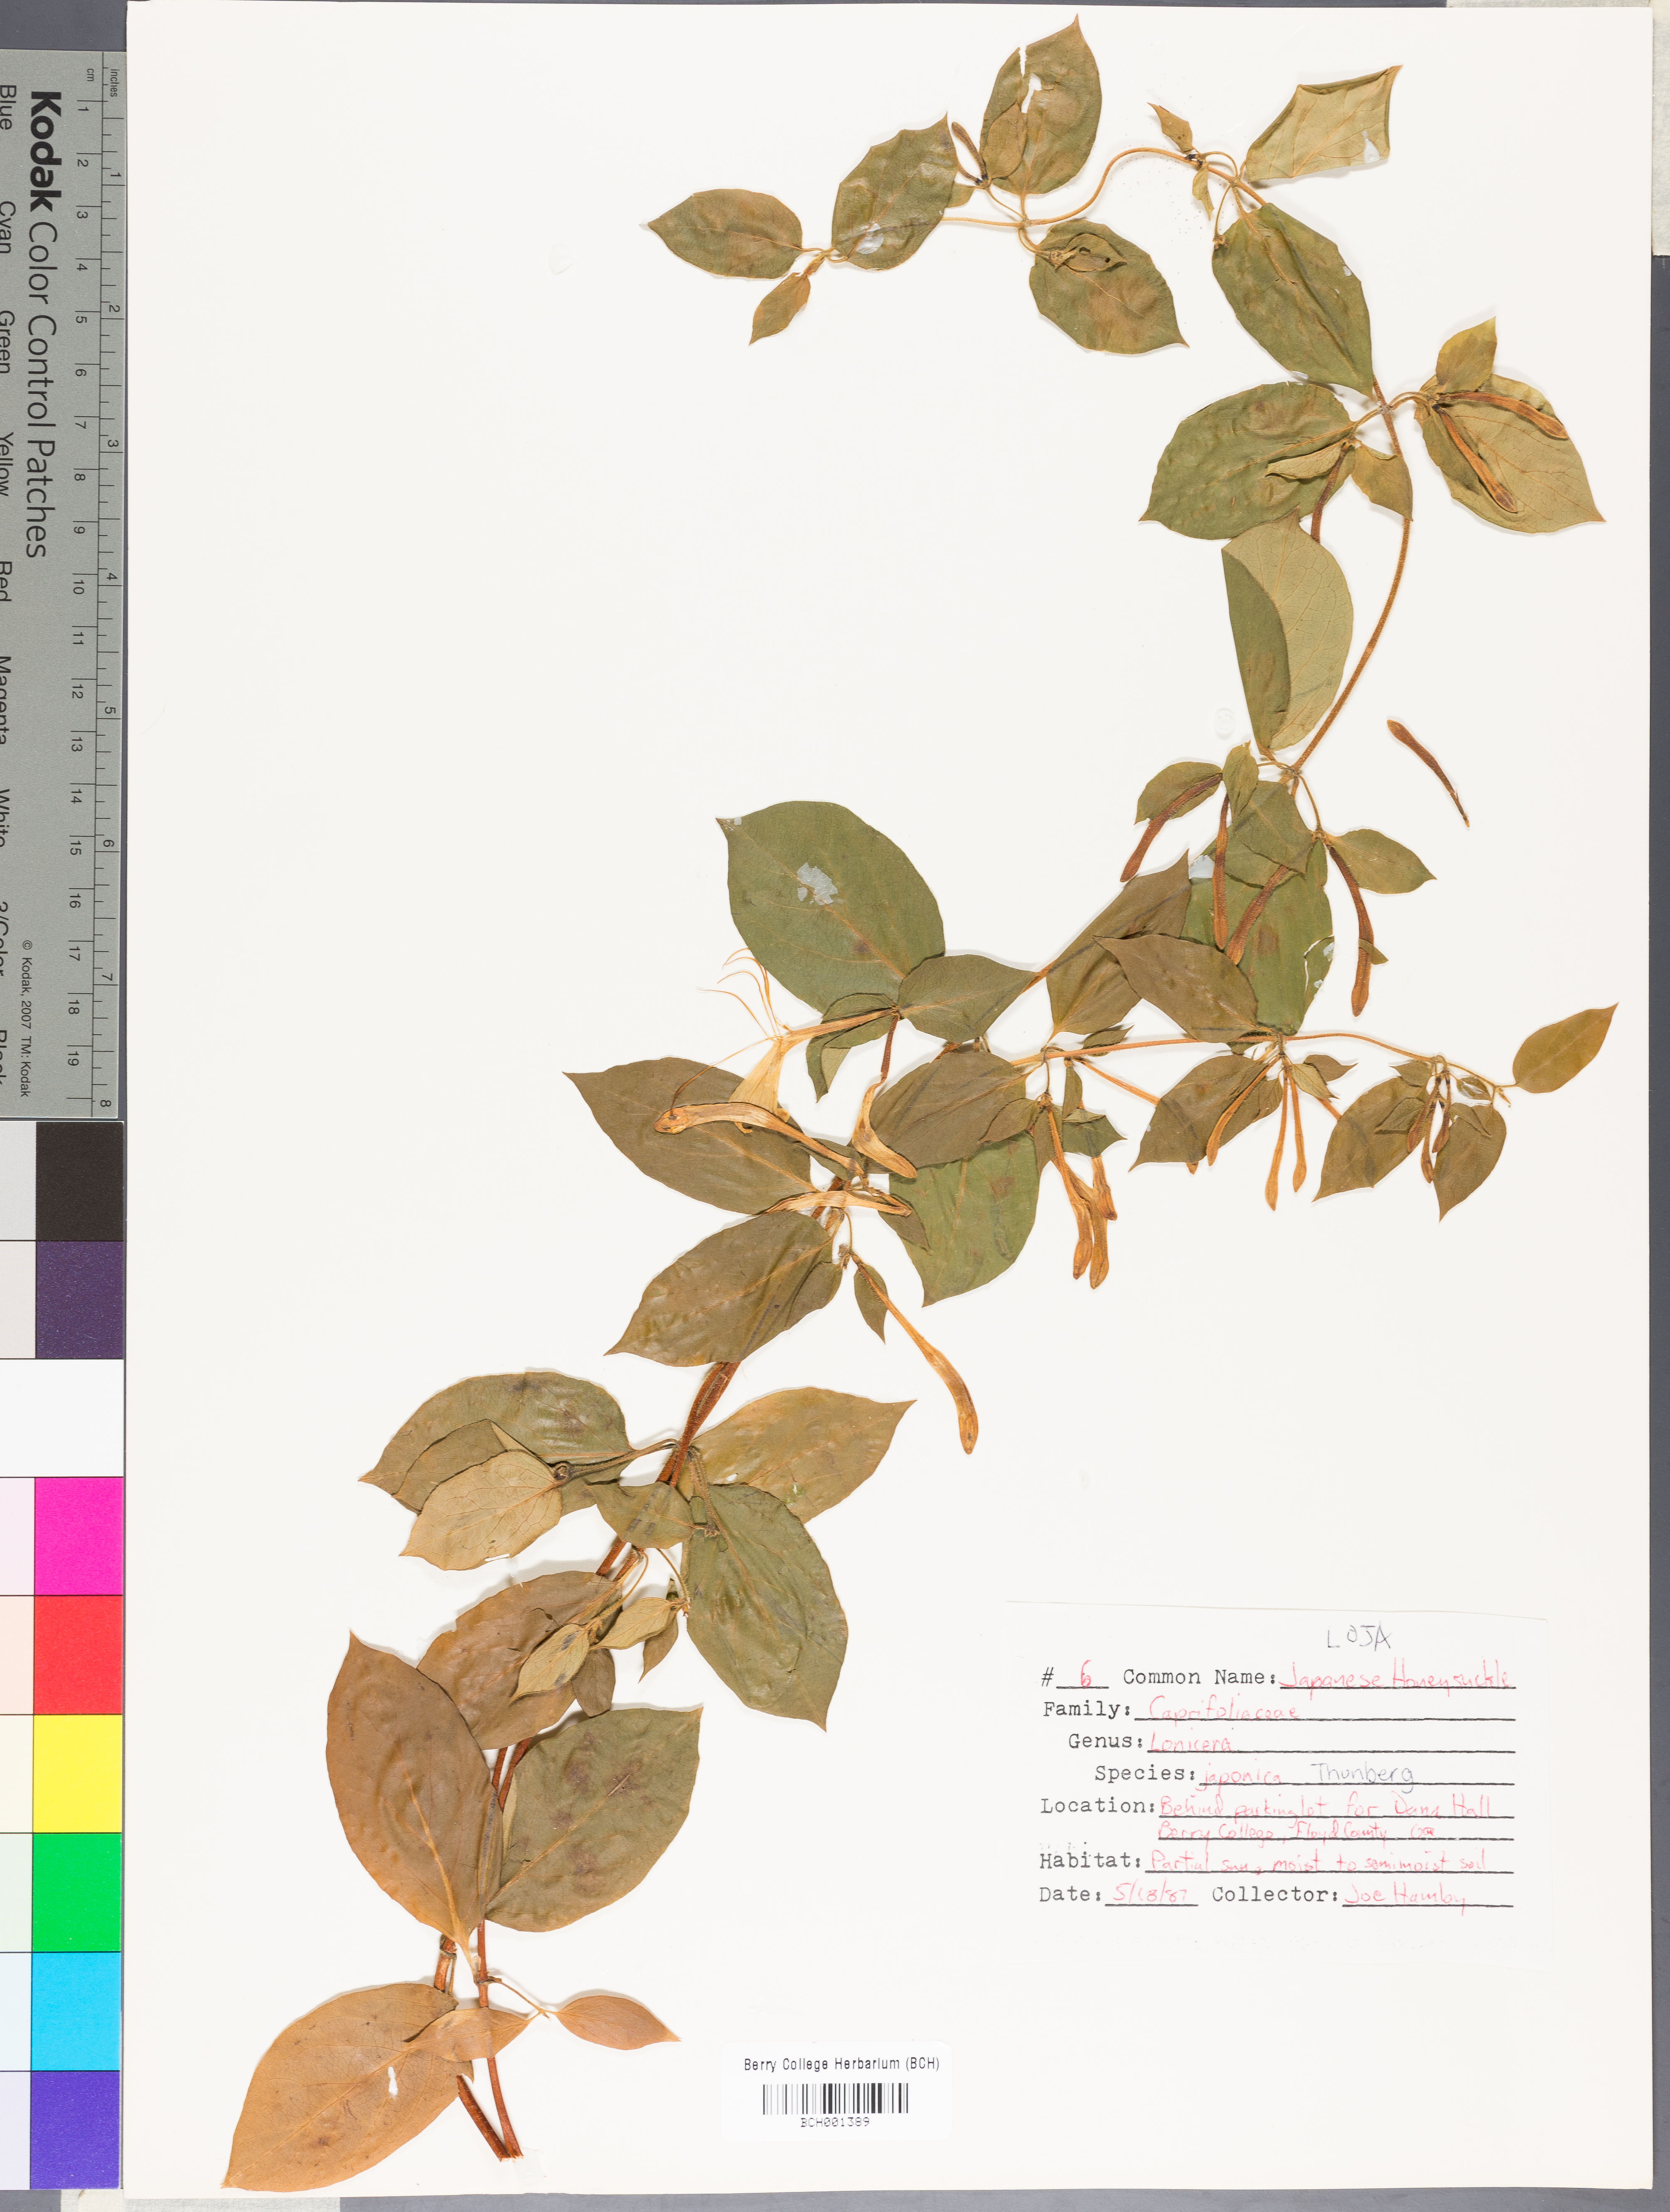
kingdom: Plantae
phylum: Tracheophyta
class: Magnoliopsida
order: Dipsacales
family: Caprifoliaceae
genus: Lonicera
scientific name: Lonicera japonica
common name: Japanese honeysuckle
